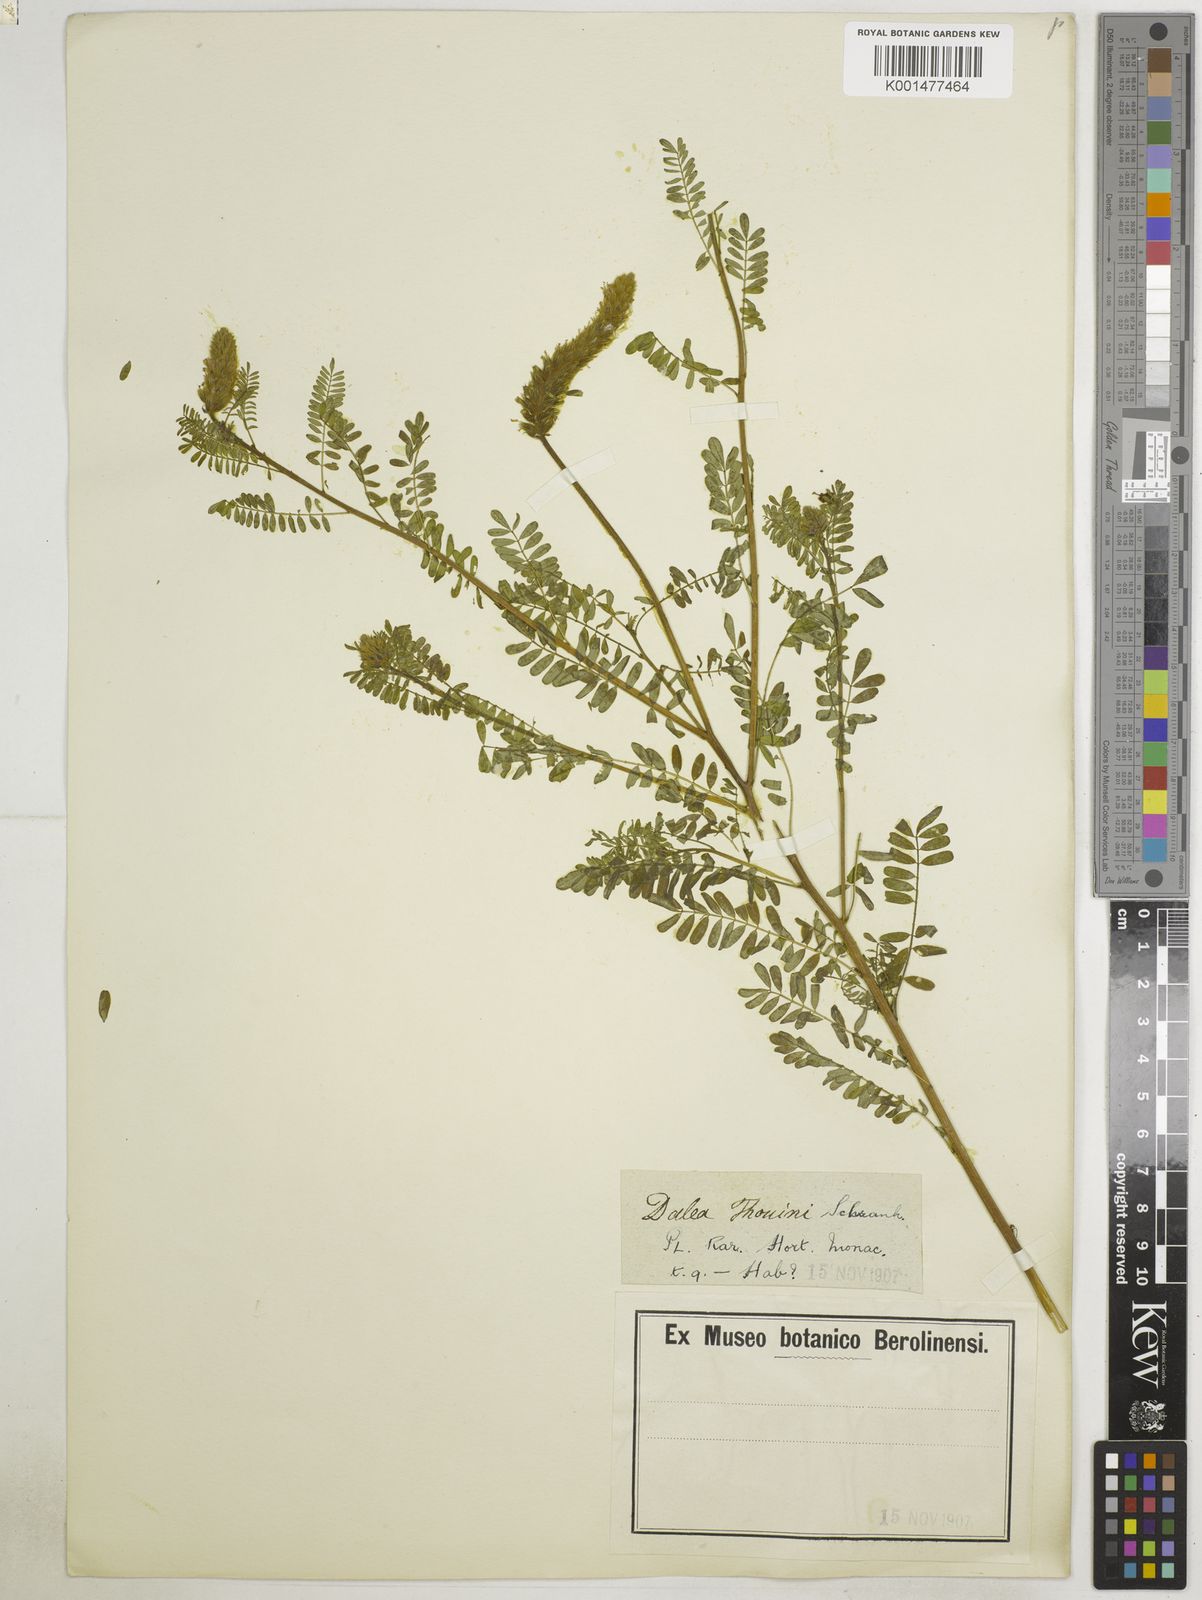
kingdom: Plantae
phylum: Tracheophyta
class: Magnoliopsida
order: Fabales
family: Fabaceae
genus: Dalea
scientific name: Dalea thouinii
